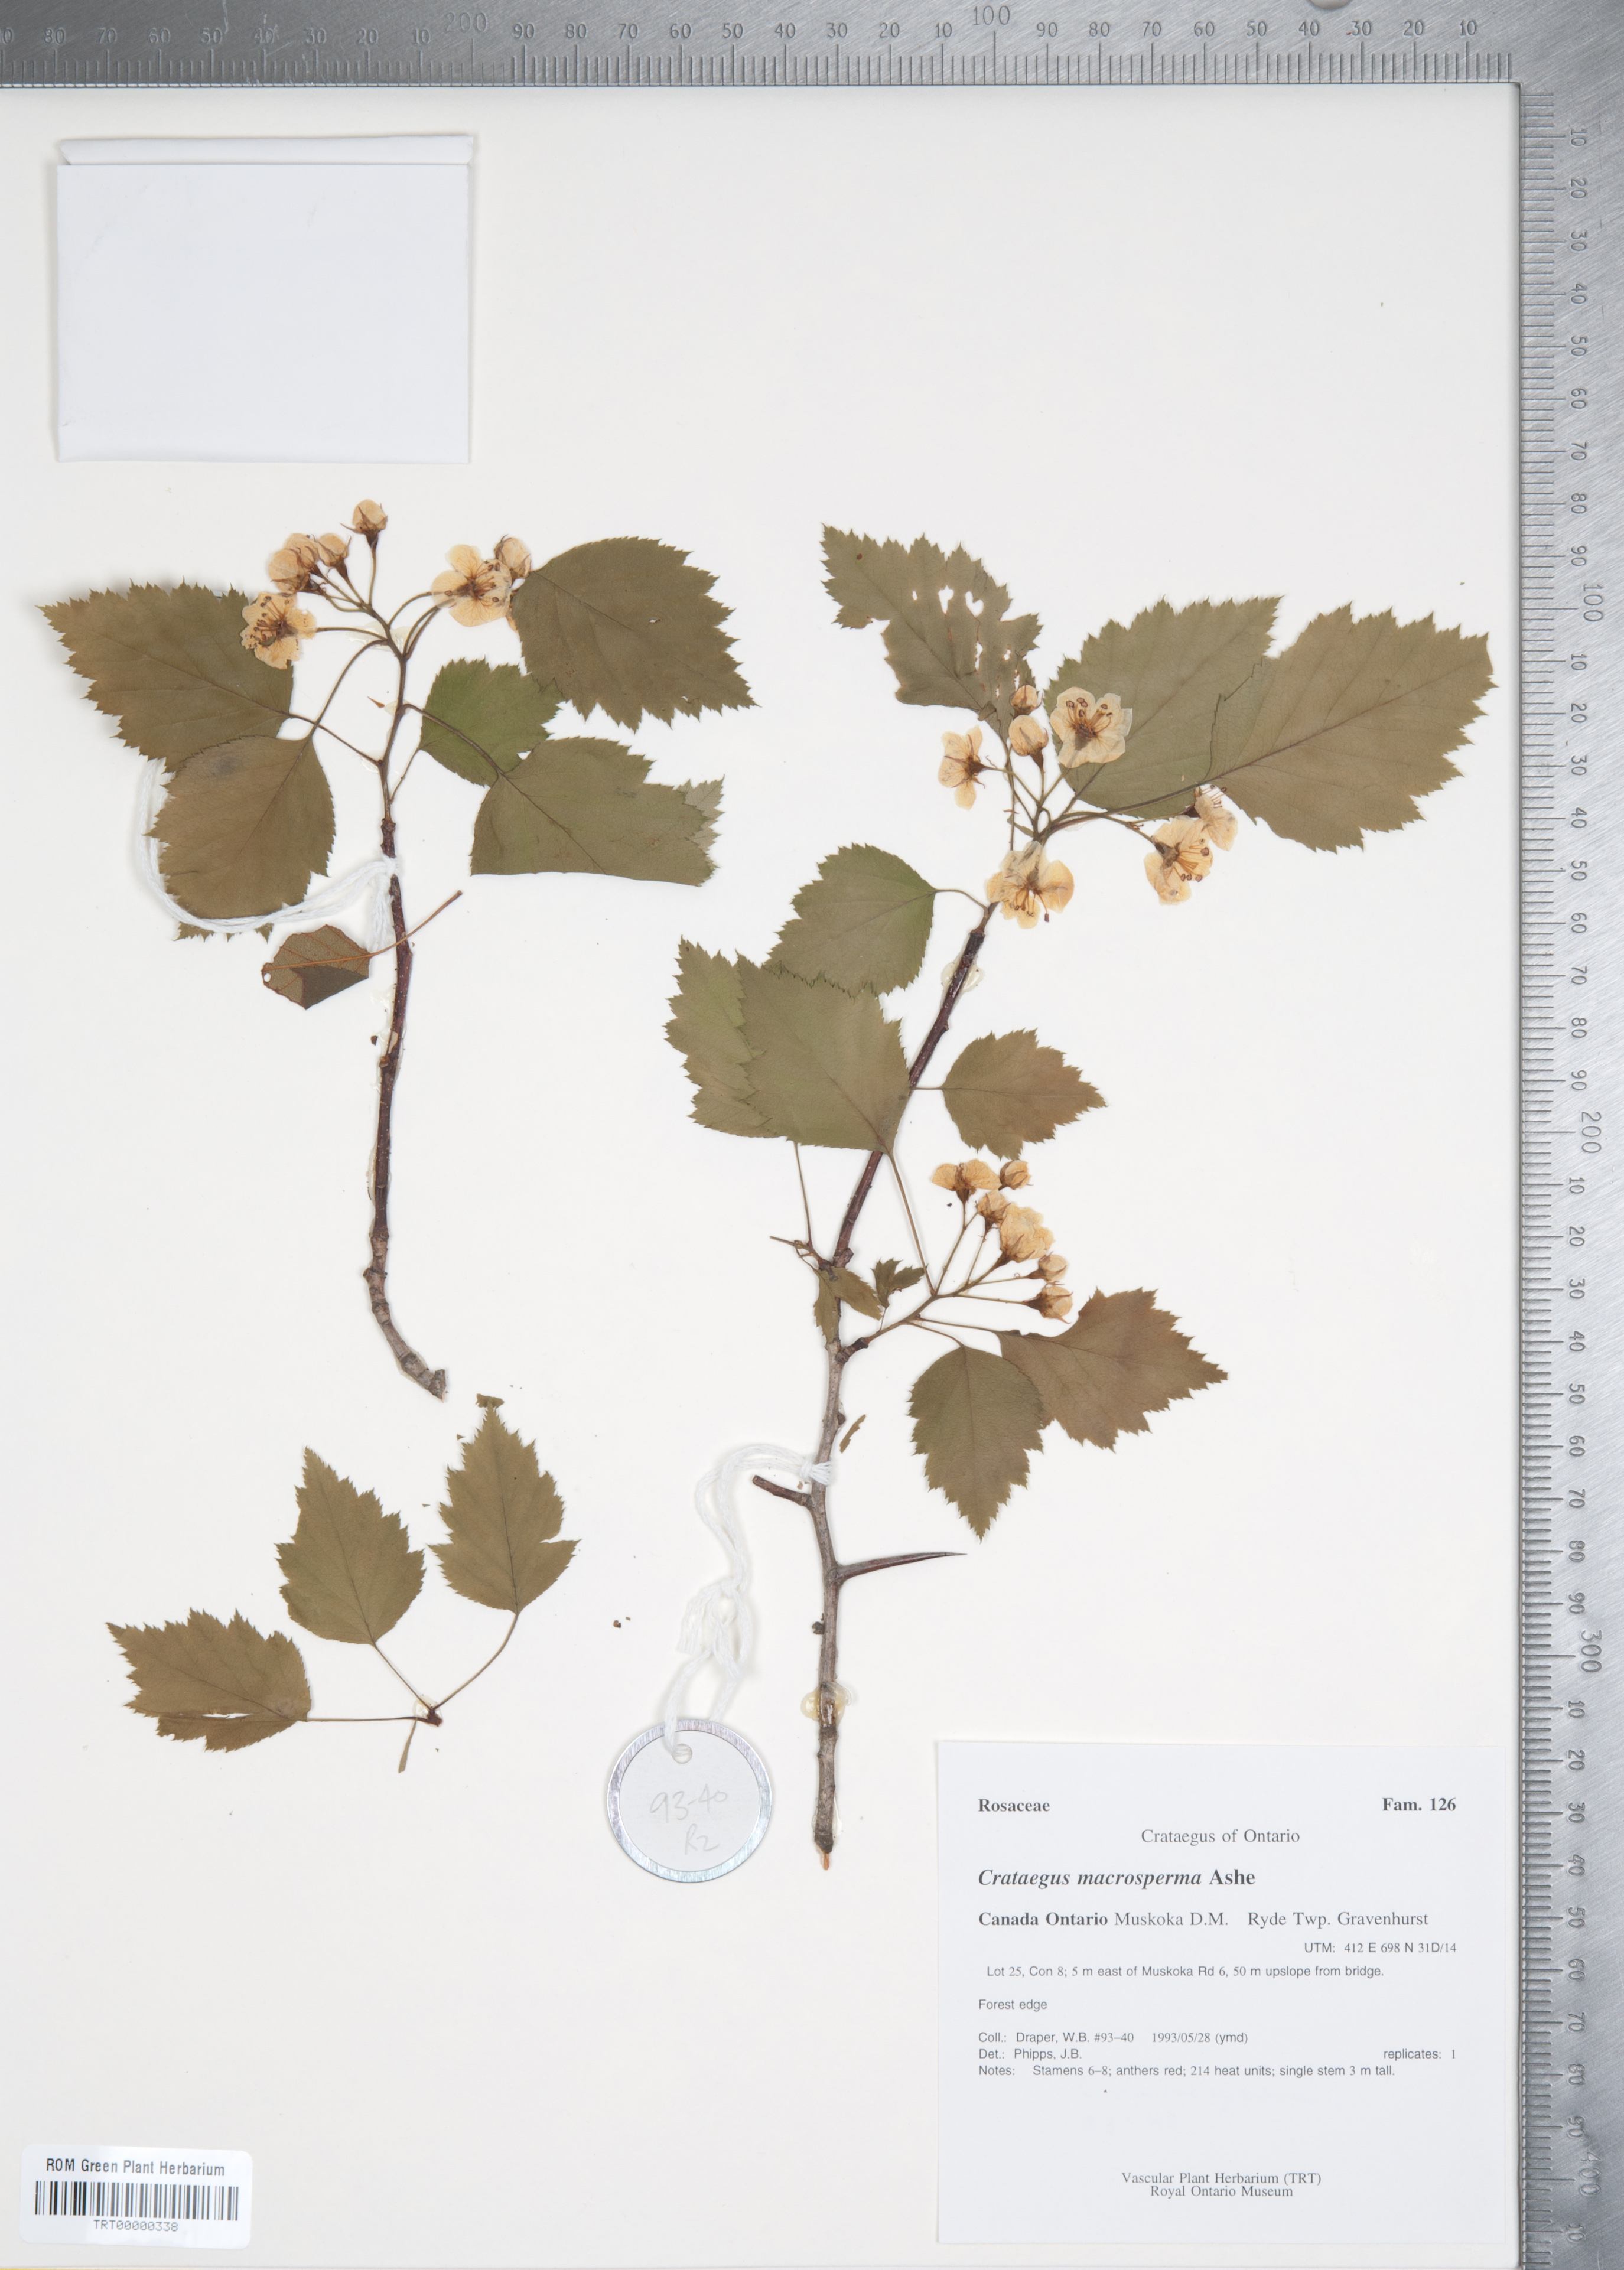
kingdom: Plantae
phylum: Tracheophyta
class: Magnoliopsida
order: Rosales
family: Rosaceae
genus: Crataegus
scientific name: Crataegus macrosperma
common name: Variable hawthorn
